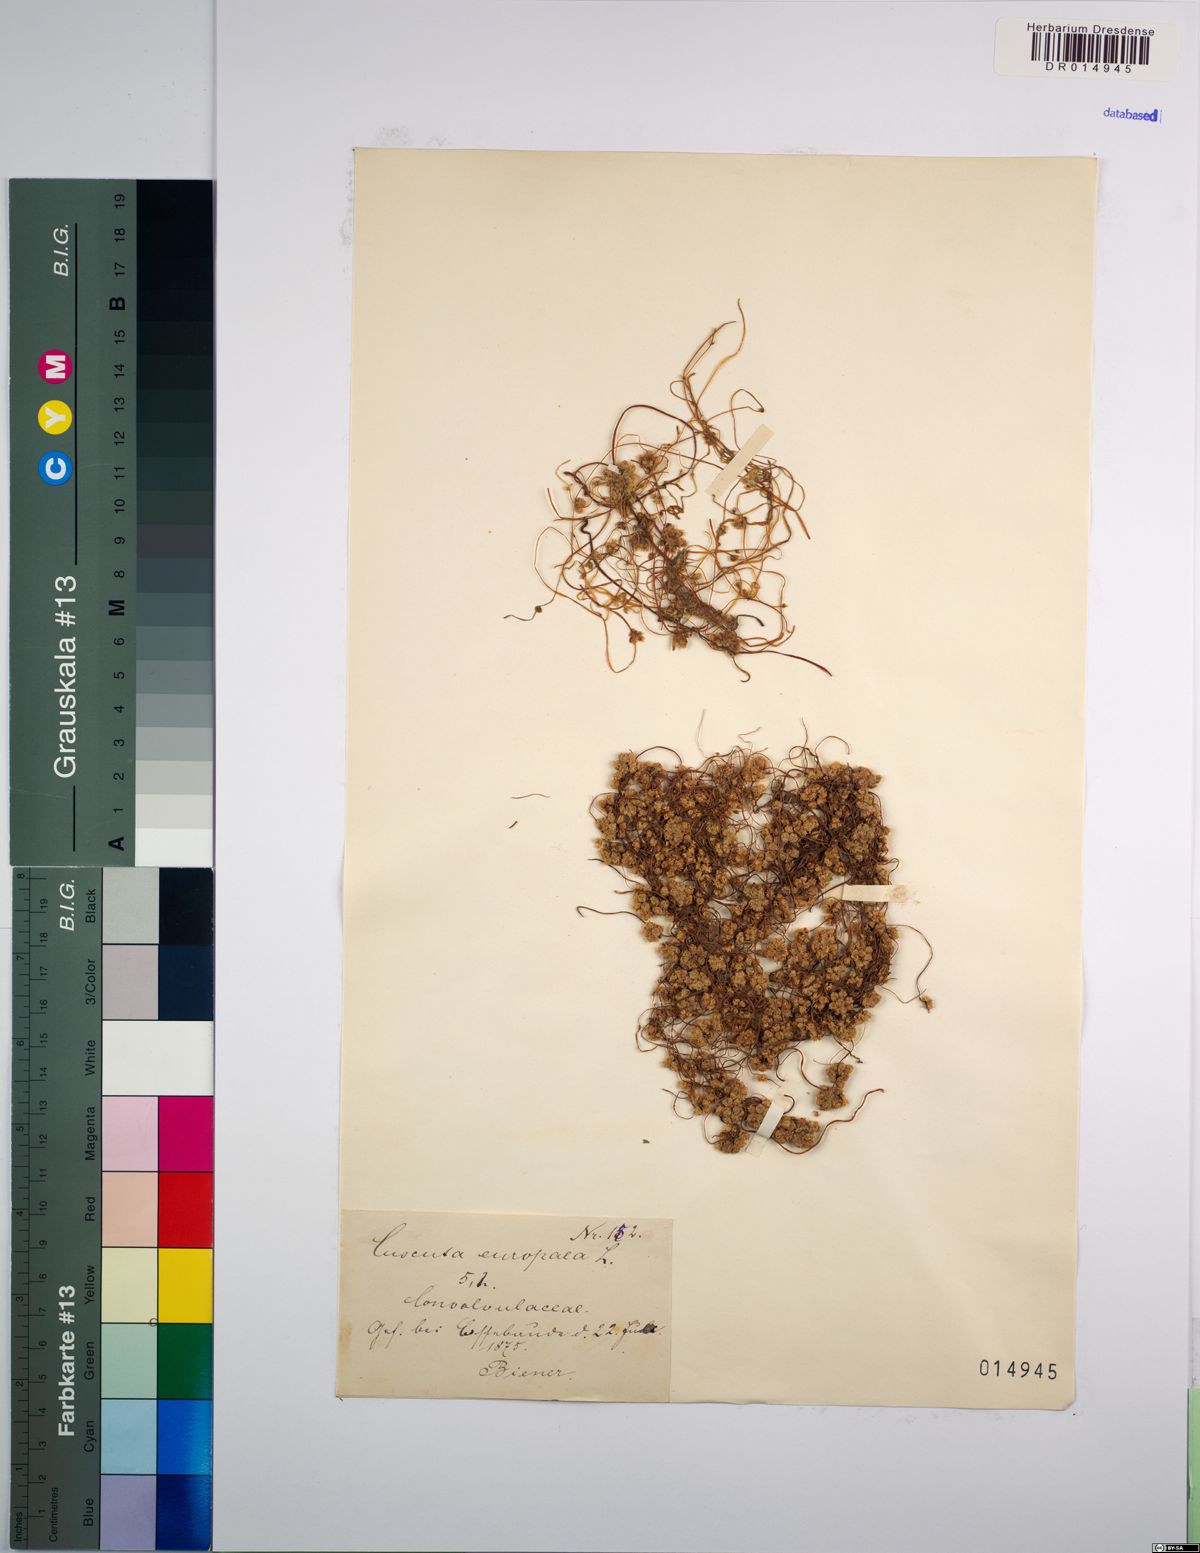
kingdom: Plantae
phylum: Tracheophyta
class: Magnoliopsida
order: Solanales
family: Convolvulaceae
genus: Cuscuta
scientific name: Cuscuta europaea
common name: Greater dodder
